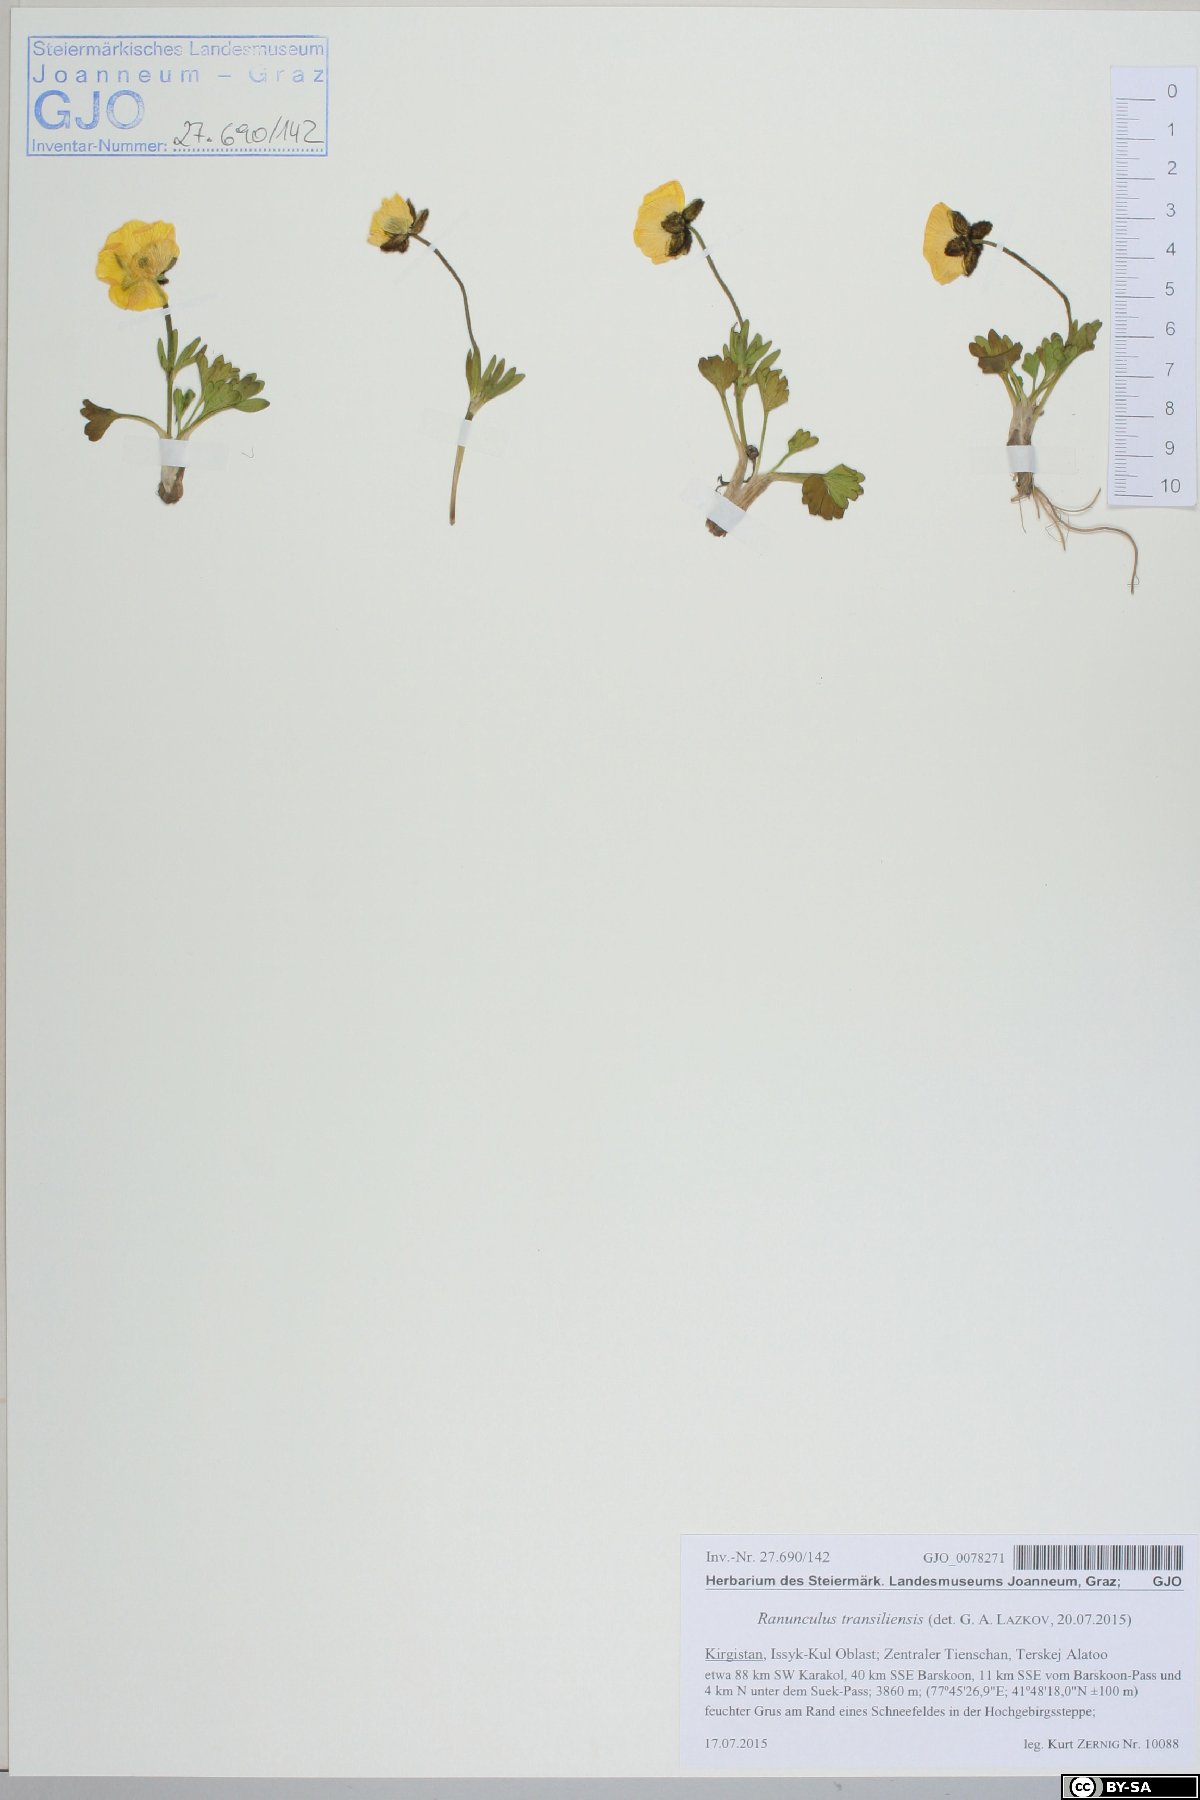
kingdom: Plantae
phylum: Tracheophyta
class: Magnoliopsida
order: Ranunculales
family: Ranunculaceae
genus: Ranunculus
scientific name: Ranunculus transiliensis
